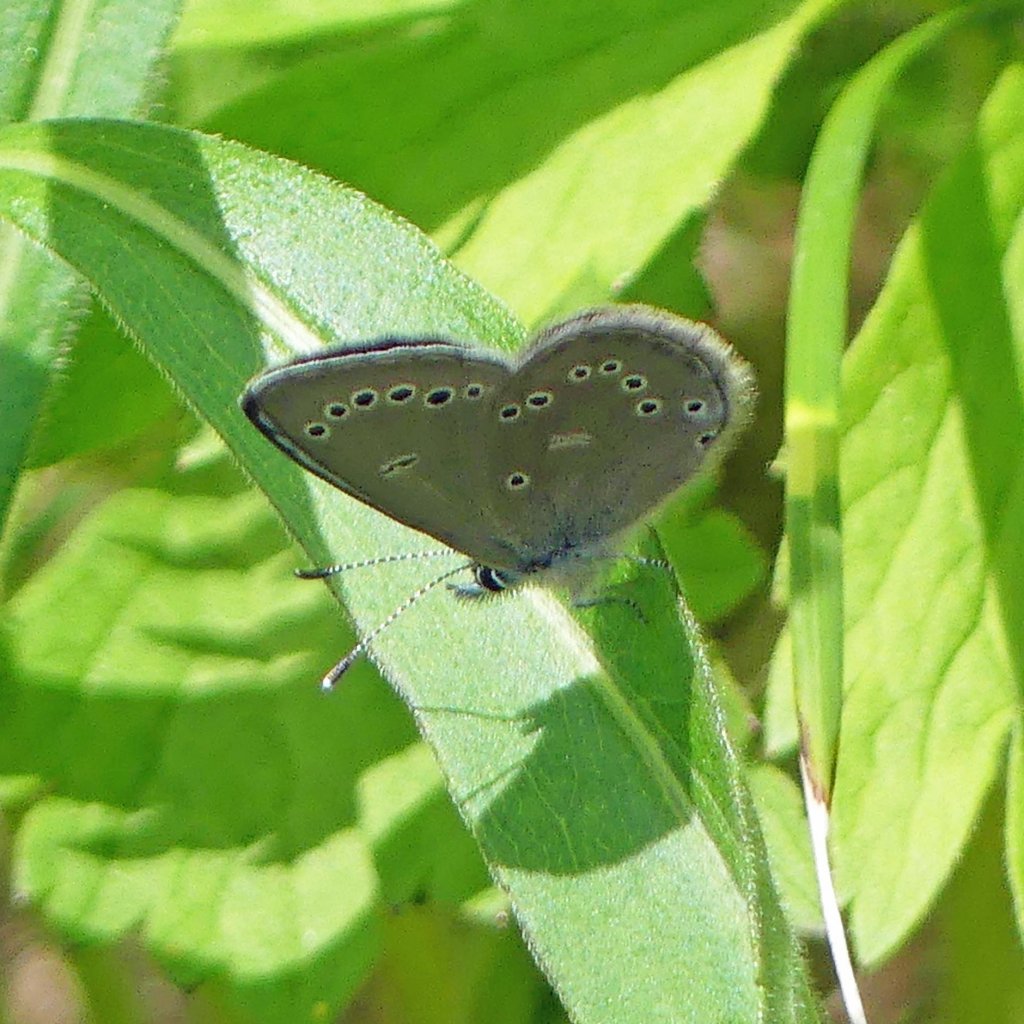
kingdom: Animalia
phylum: Arthropoda
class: Insecta
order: Lepidoptera
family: Lycaenidae
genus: Glaucopsyche
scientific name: Glaucopsyche lygdamus
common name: Silvery Blue
